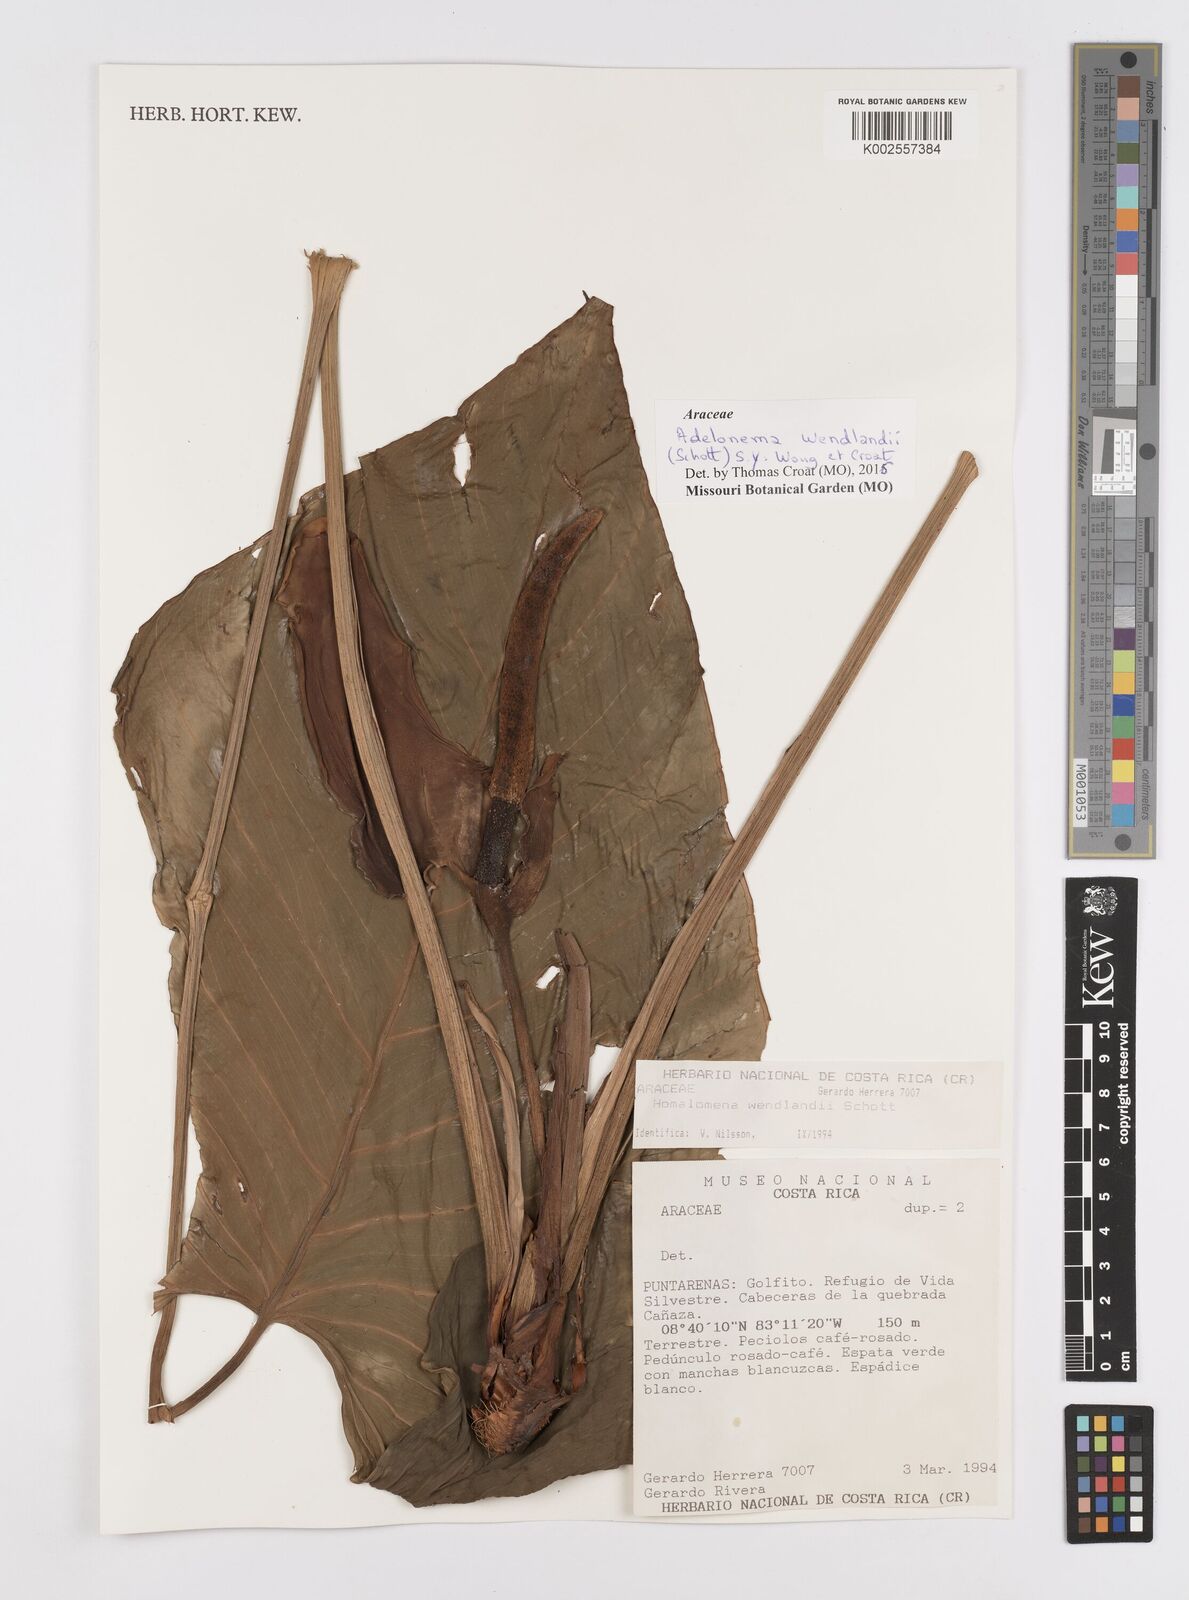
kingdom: Plantae
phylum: Tracheophyta
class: Liliopsida
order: Alismatales
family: Araceae
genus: Adelonema
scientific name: Adelonema wendlandii
